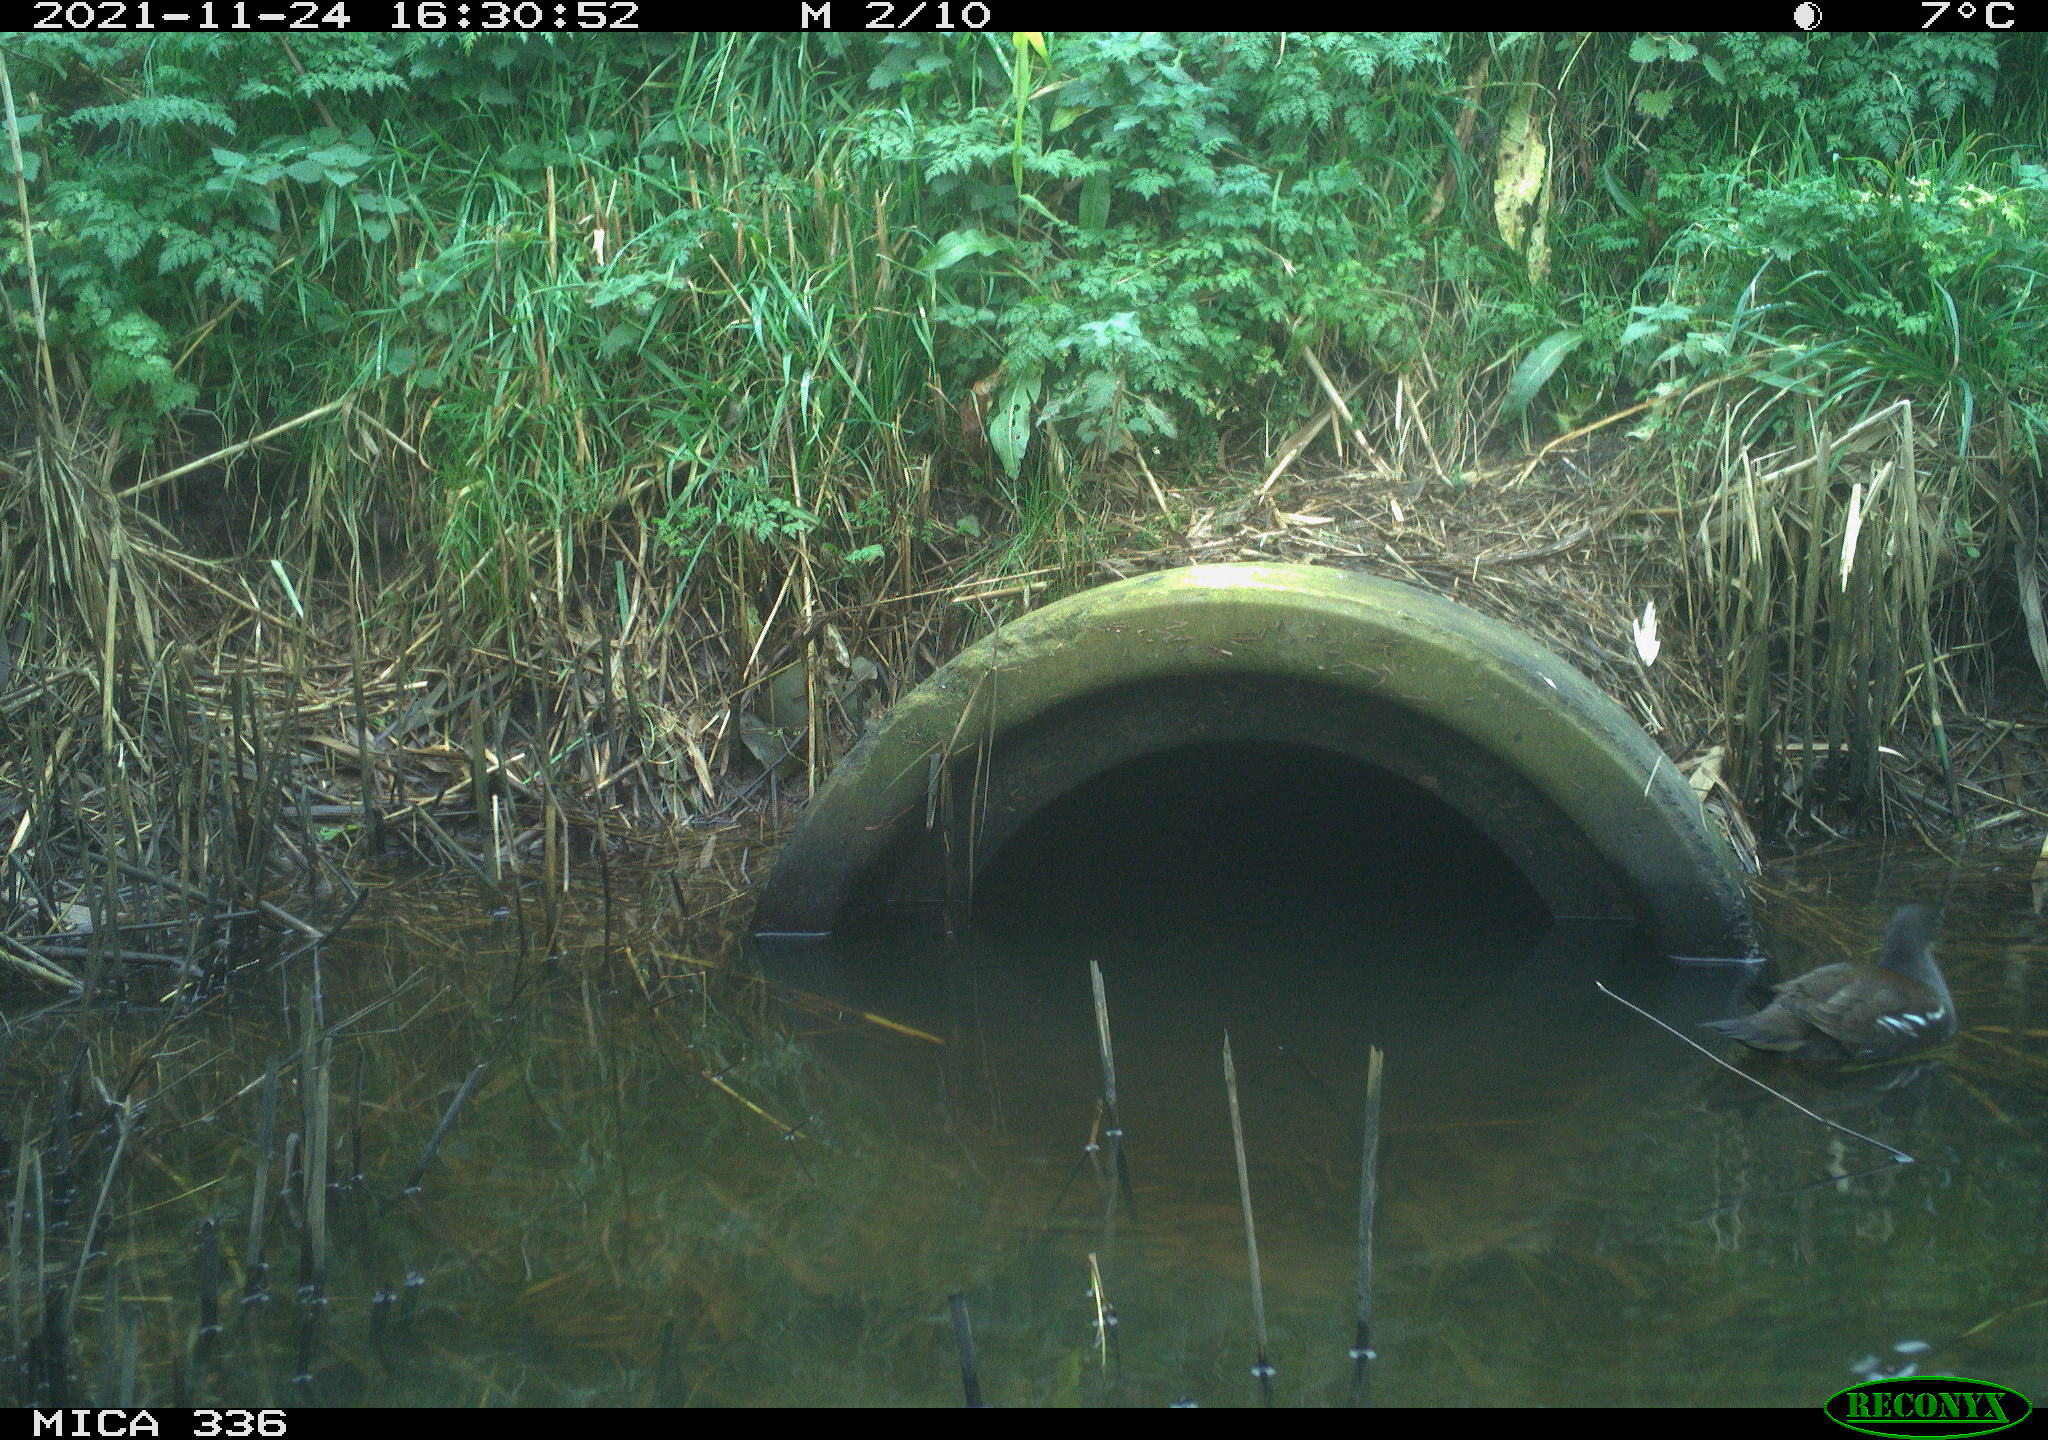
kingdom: Animalia
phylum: Chordata
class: Aves
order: Gruiformes
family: Rallidae
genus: Gallinula
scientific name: Gallinula chloropus
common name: Common moorhen
